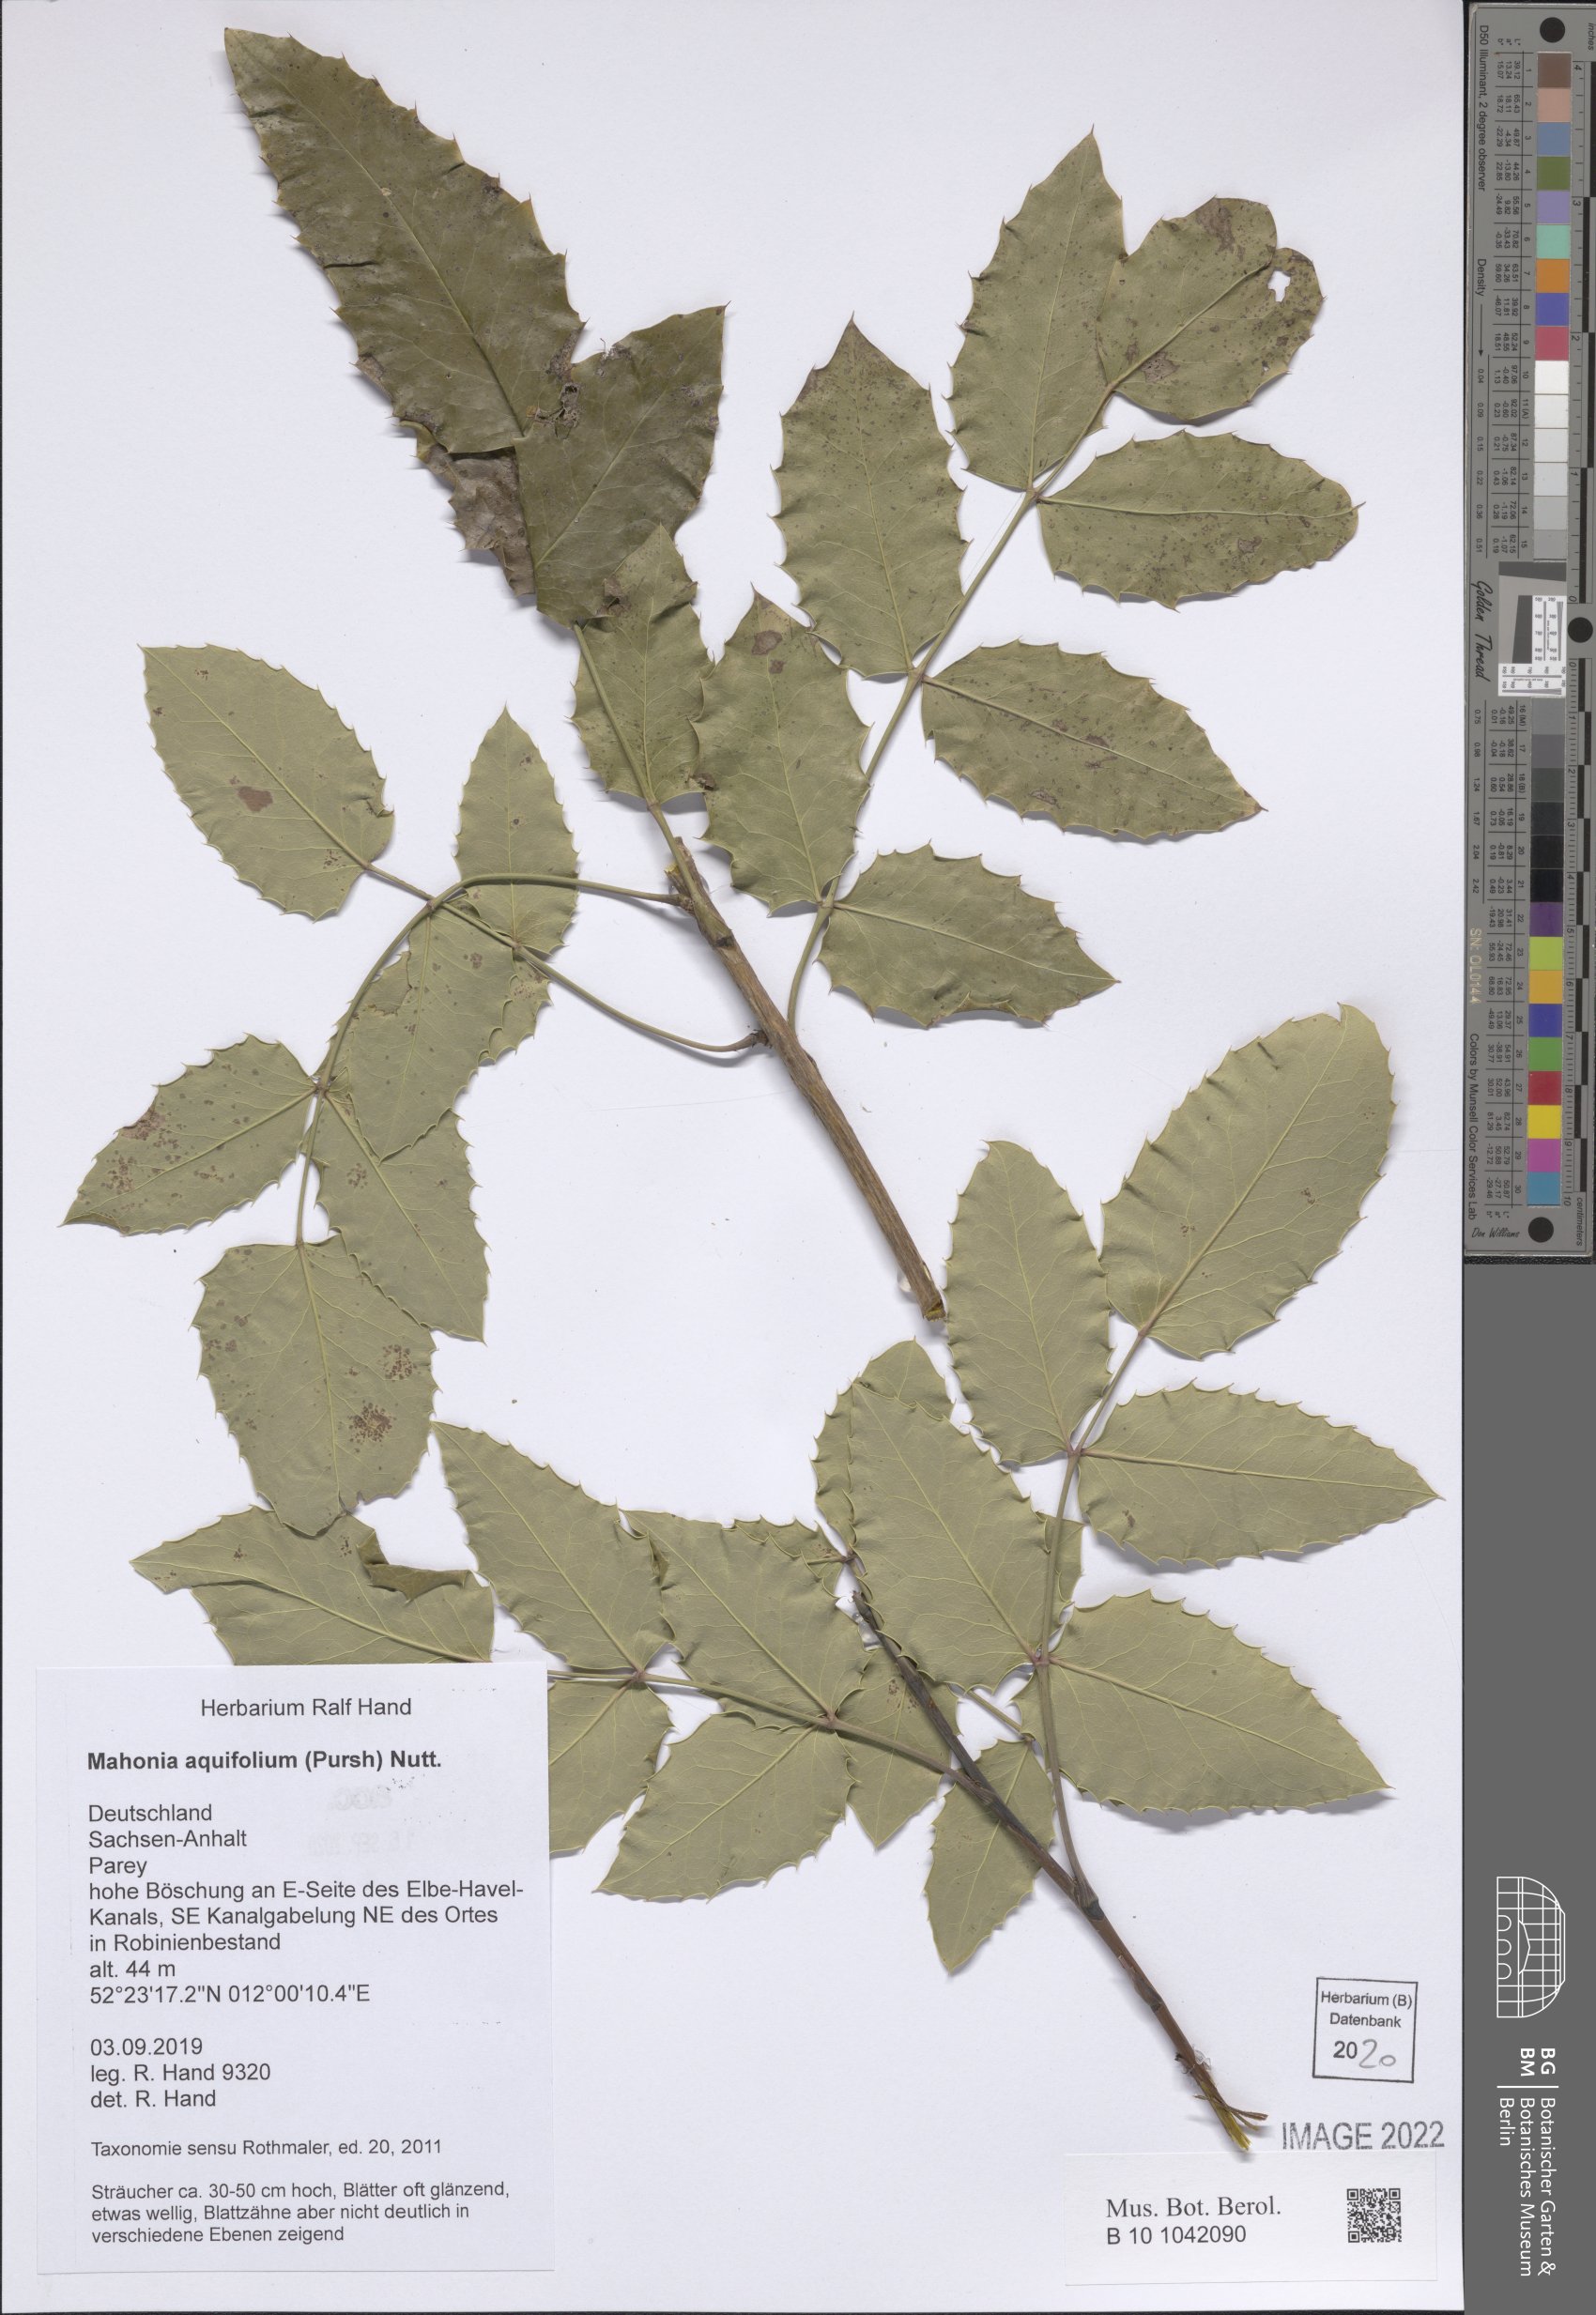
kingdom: Plantae
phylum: Tracheophyta
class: Magnoliopsida
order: Ranunculales
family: Berberidaceae
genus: Mahonia
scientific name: Mahonia aquifolium
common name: Oregon-grape
